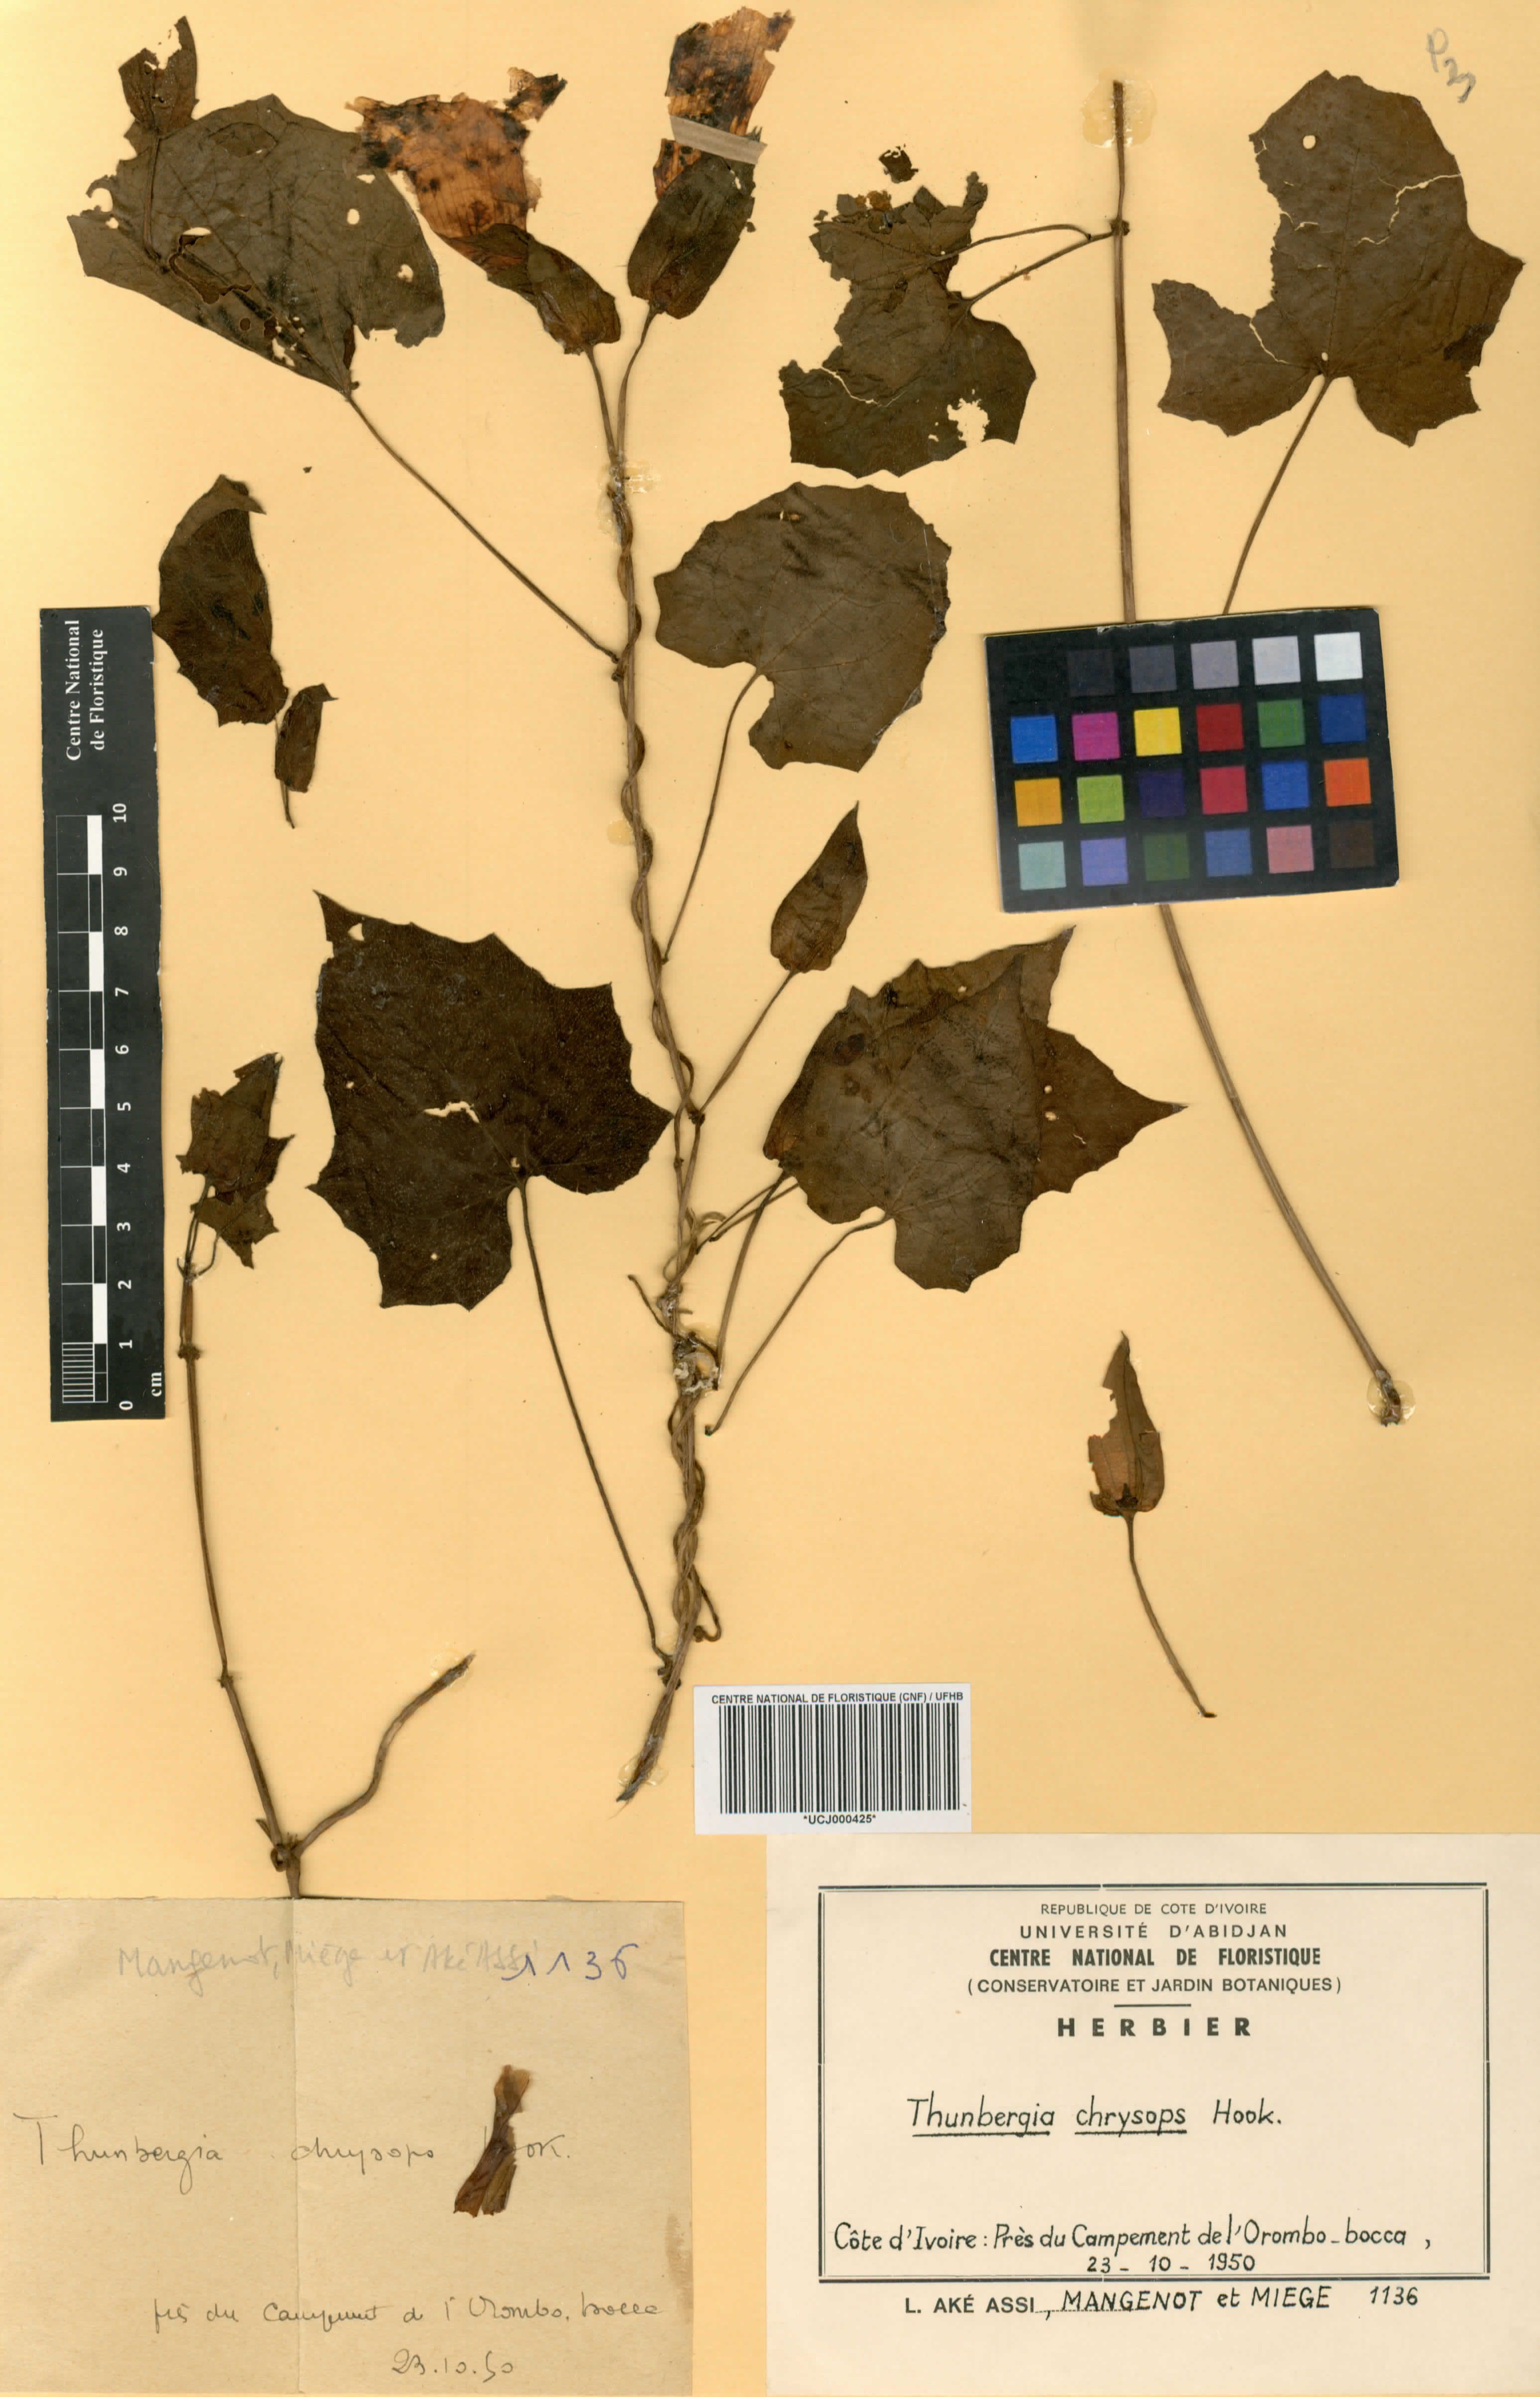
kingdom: Plantae
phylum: Tracheophyta
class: Magnoliopsida
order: Lamiales
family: Acanthaceae
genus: Thunbergia
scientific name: Thunbergia chrysops
